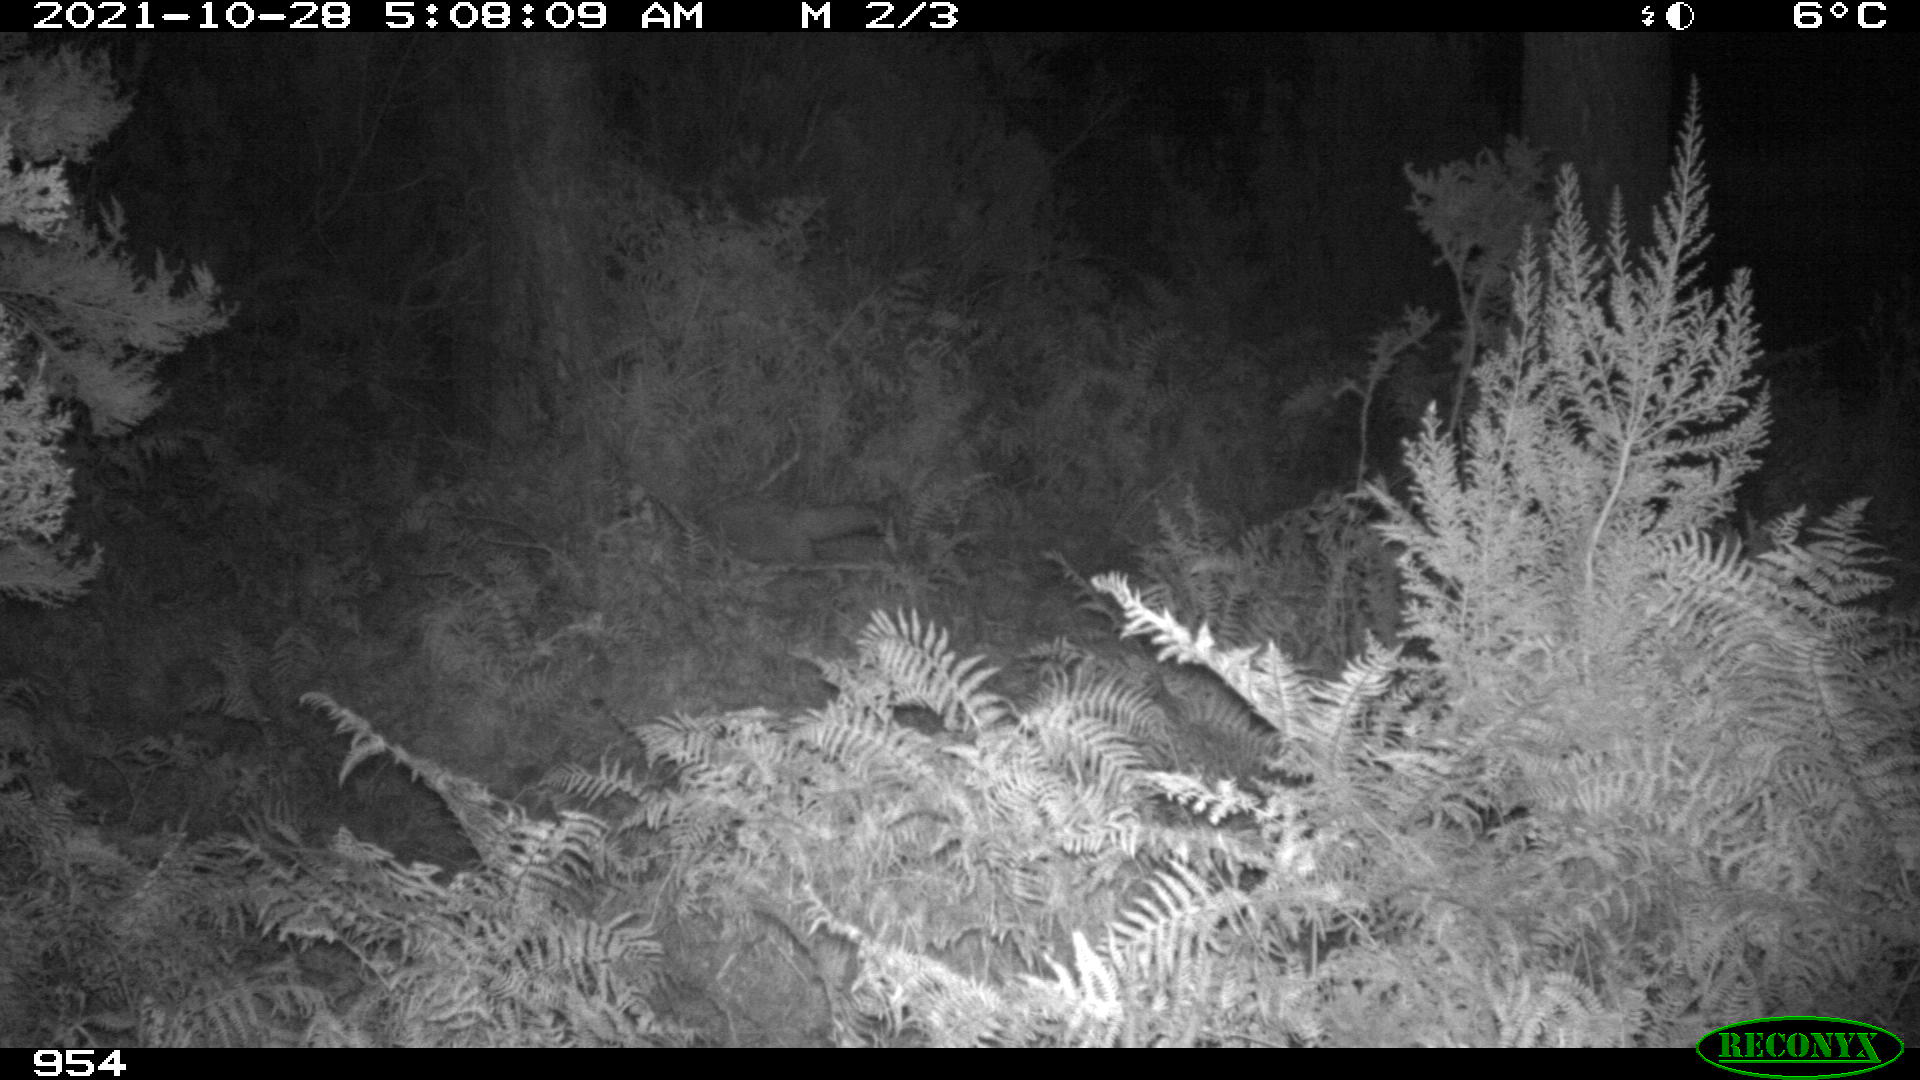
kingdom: Animalia
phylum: Chordata
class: Mammalia
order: Carnivora
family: Canidae
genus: Vulpes
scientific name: Vulpes vulpes
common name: Red fox
